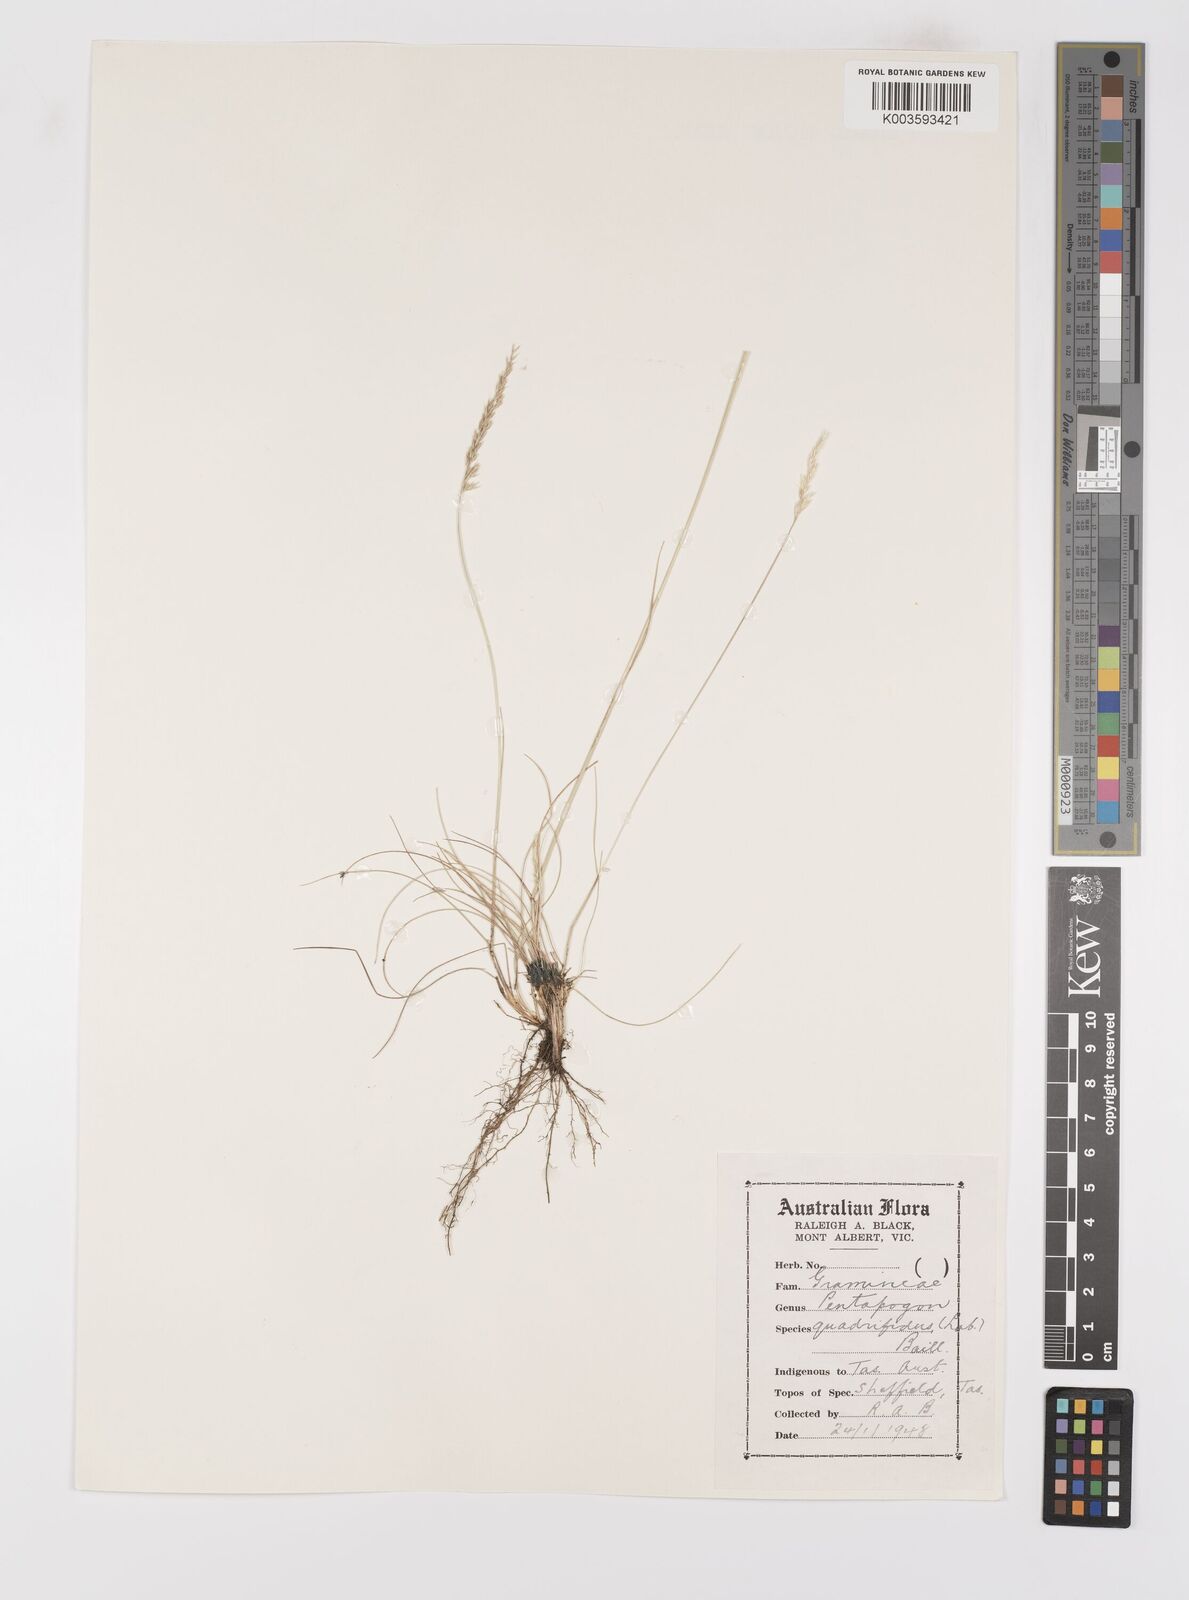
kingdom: Plantae
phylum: Tracheophyta
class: Liliopsida
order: Poales
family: Poaceae
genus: Pentapogon
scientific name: Pentapogon quadrifidus
